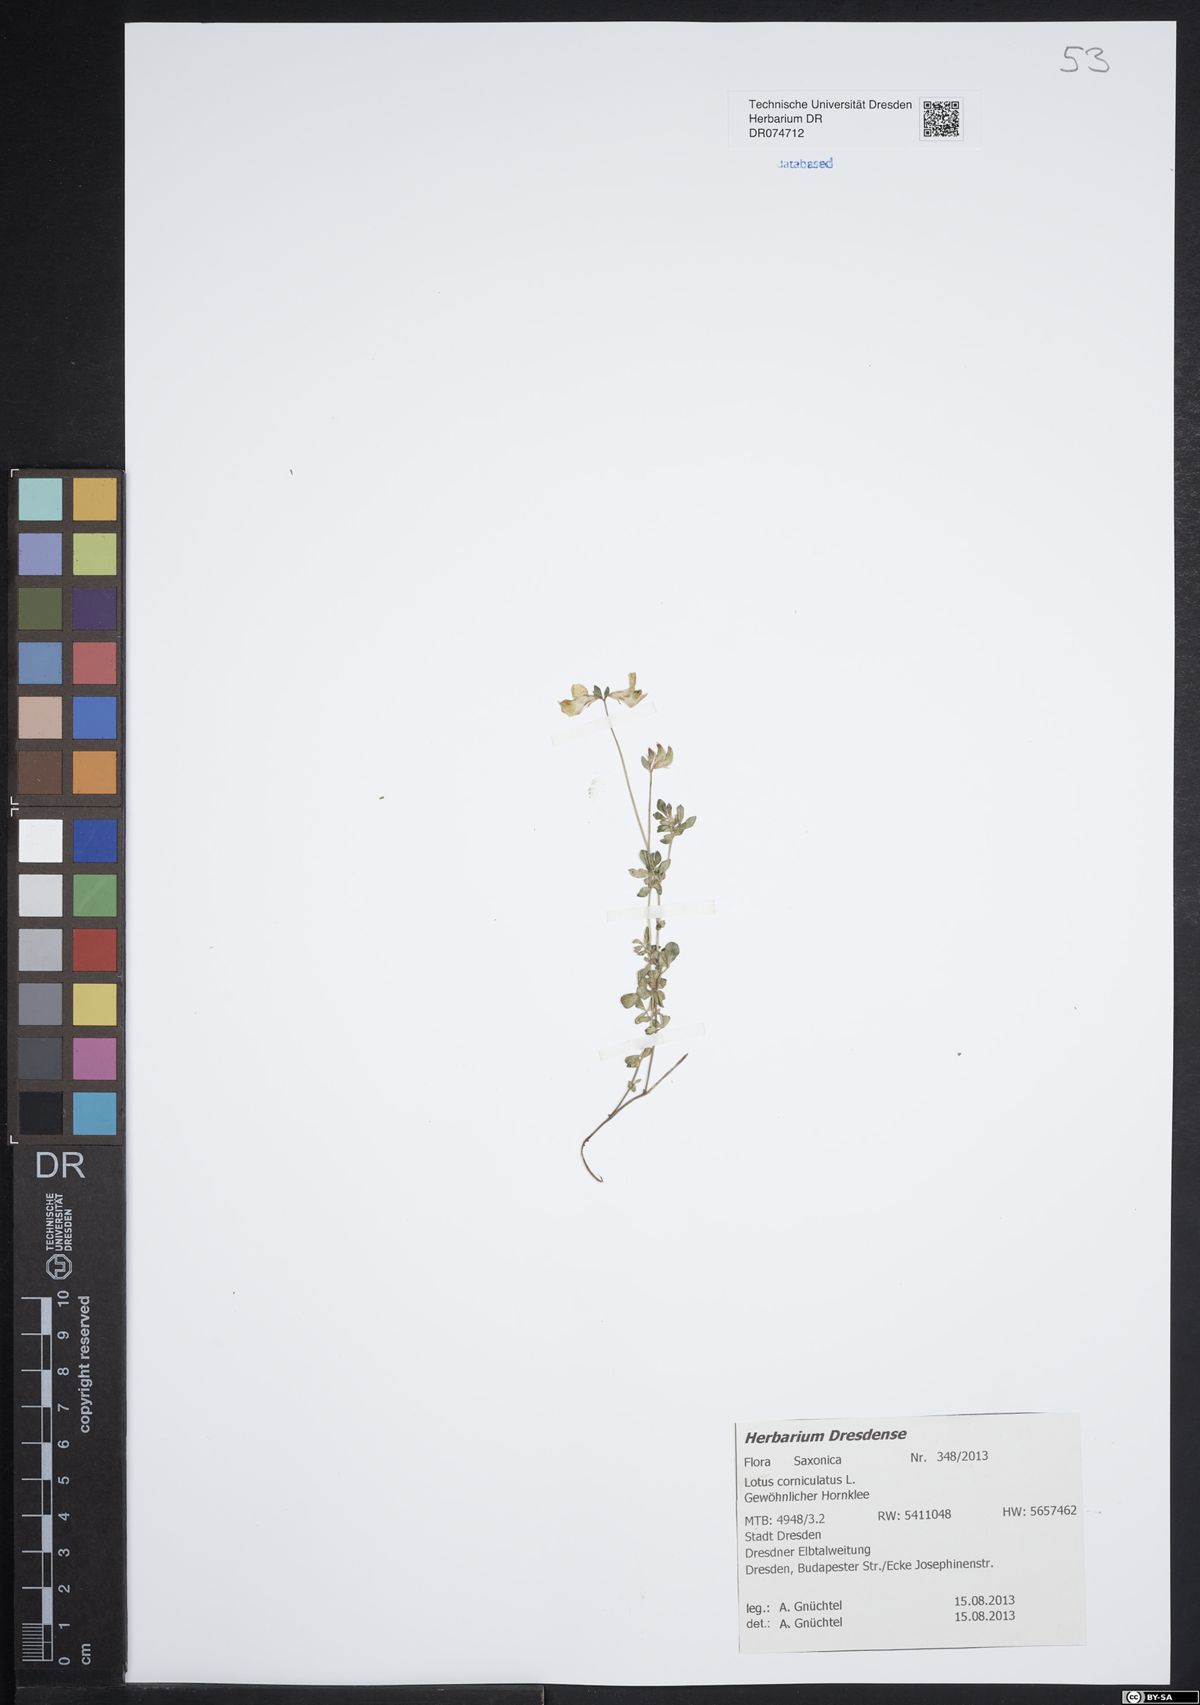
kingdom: Plantae
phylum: Tracheophyta
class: Magnoliopsida
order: Fabales
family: Fabaceae
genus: Lotus
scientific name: Lotus corniculatus
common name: Common bird's-foot-trefoil
